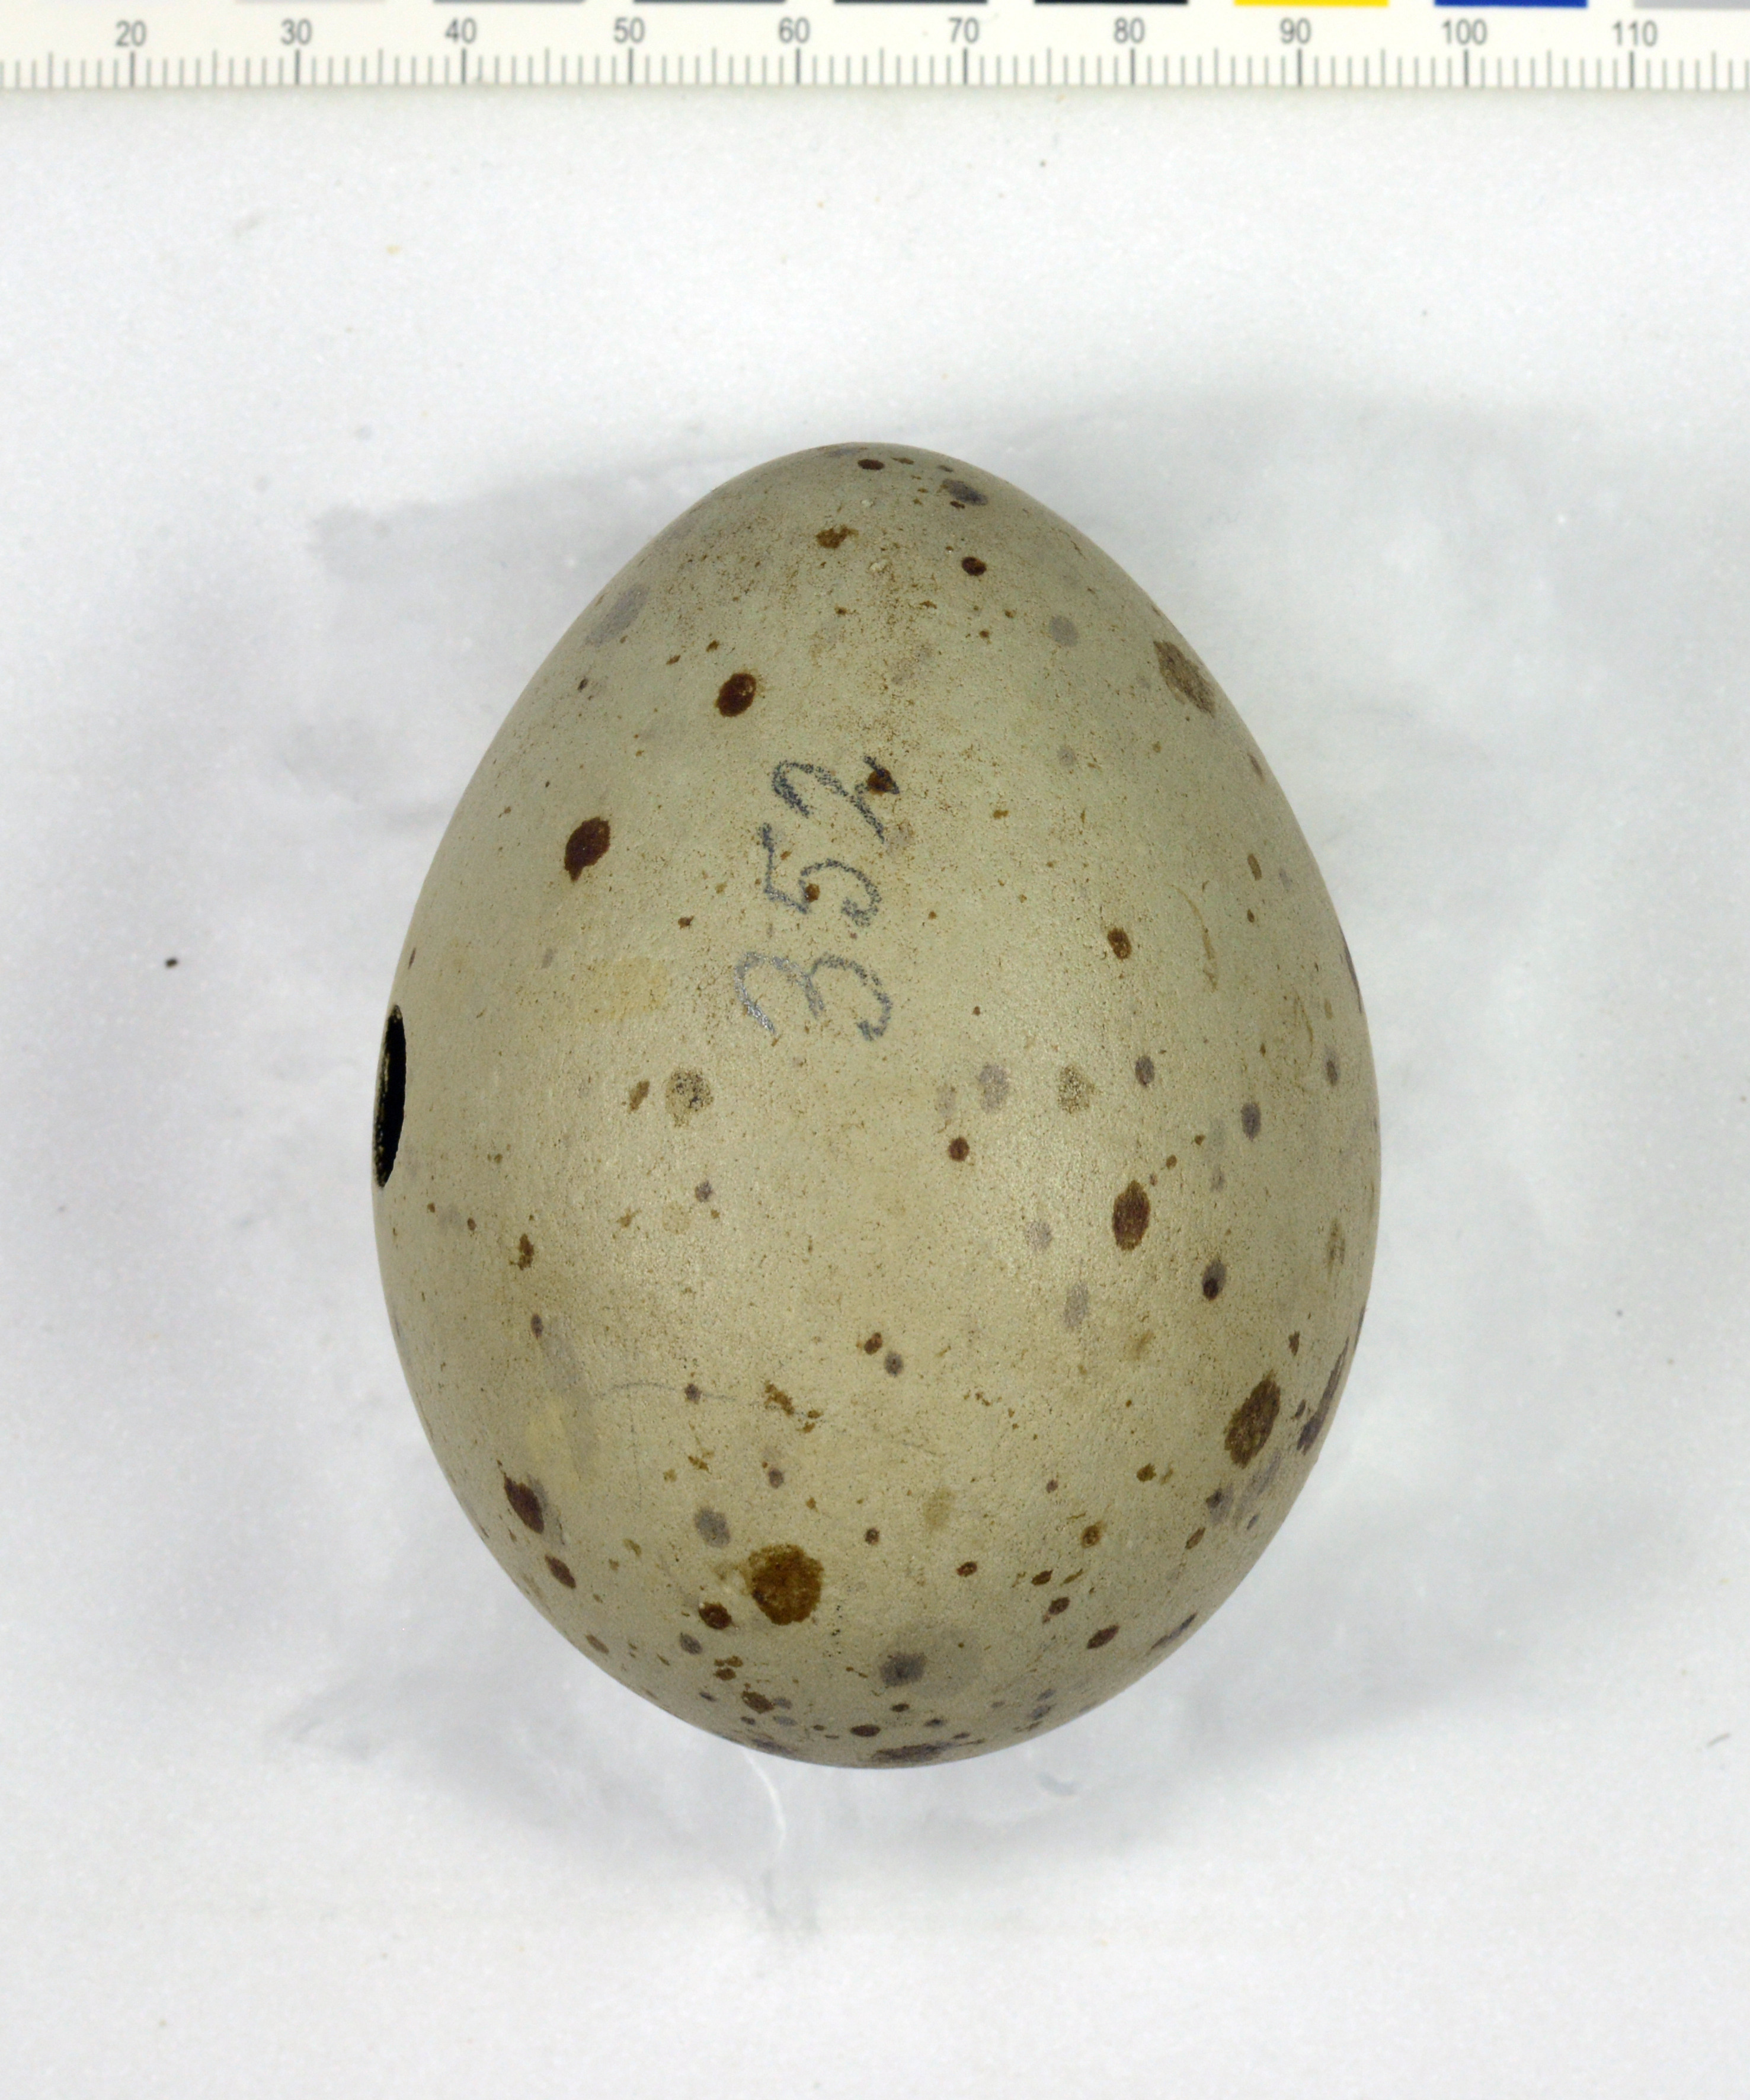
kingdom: Animalia
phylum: Chordata
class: Aves
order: Charadriiformes
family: Stercorariidae
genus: Stercorarius
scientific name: Stercorarius antarcticus
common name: Brown skua
